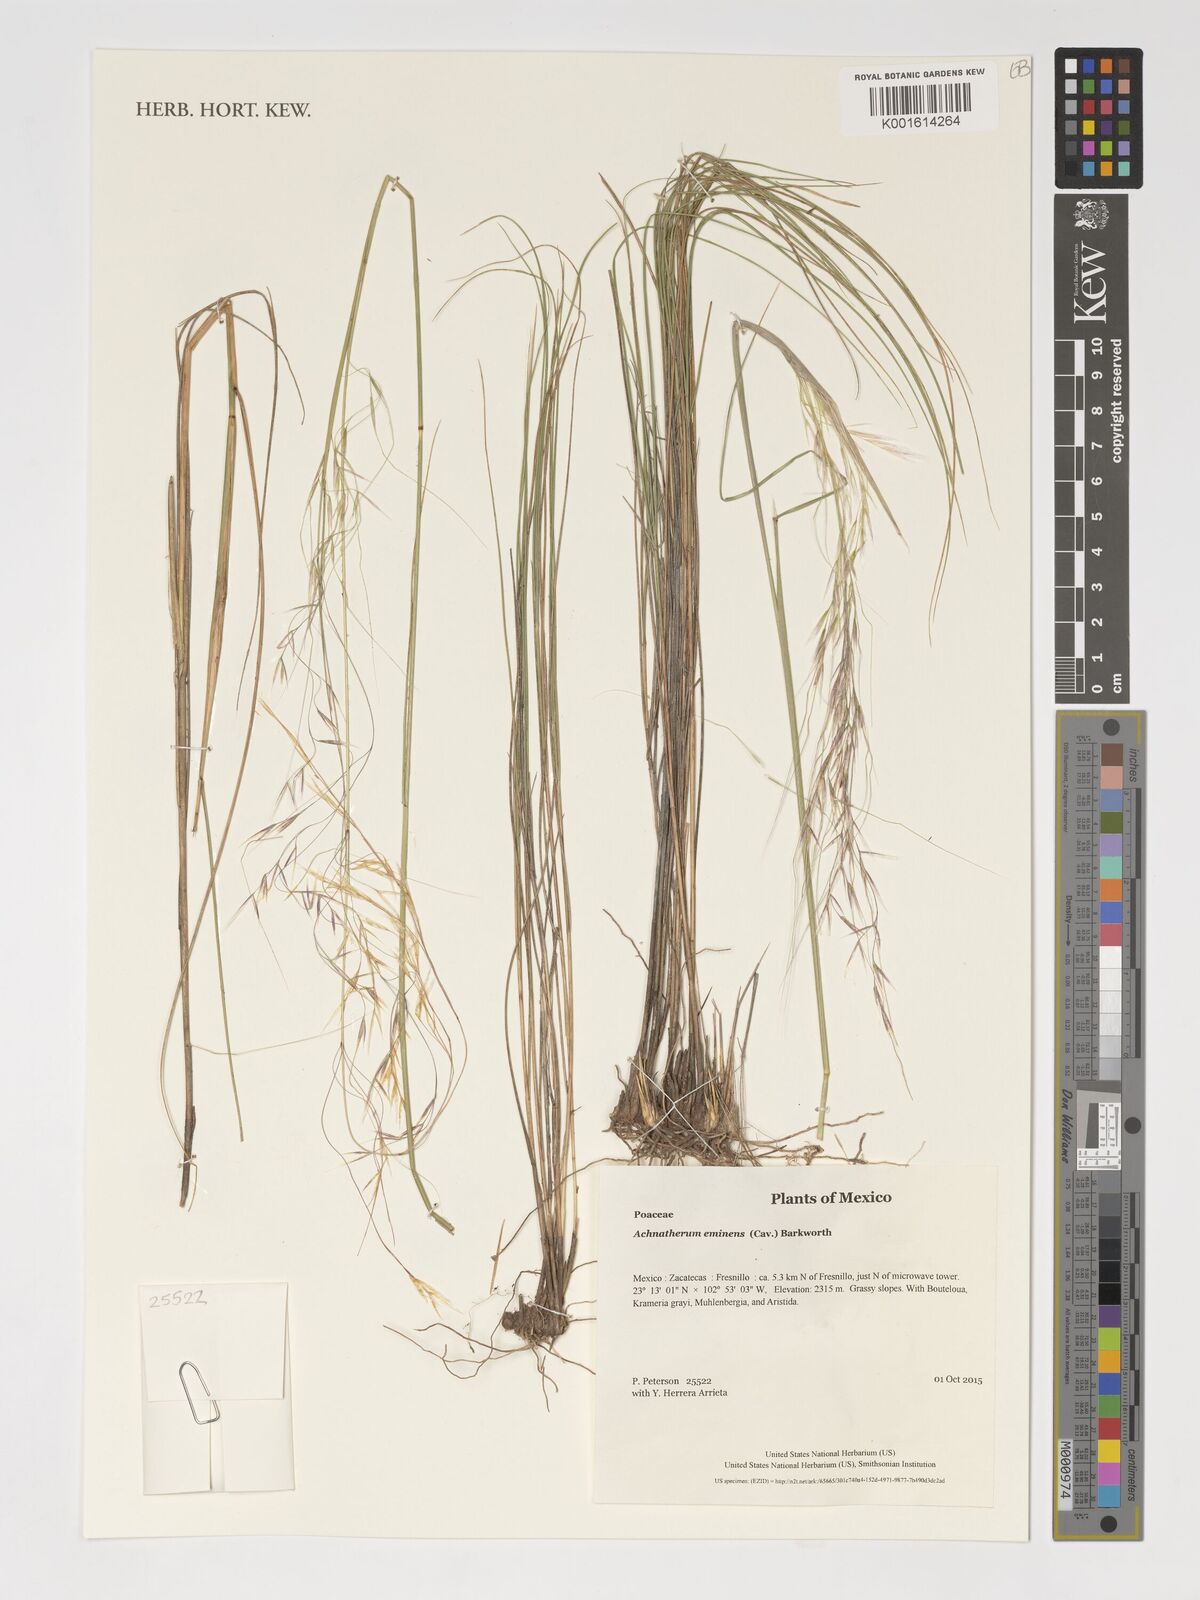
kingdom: Plantae
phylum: Tracheophyta
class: Liliopsida
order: Poales
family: Poaceae
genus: Pseudoeriocoma
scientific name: Pseudoeriocoma eminens
